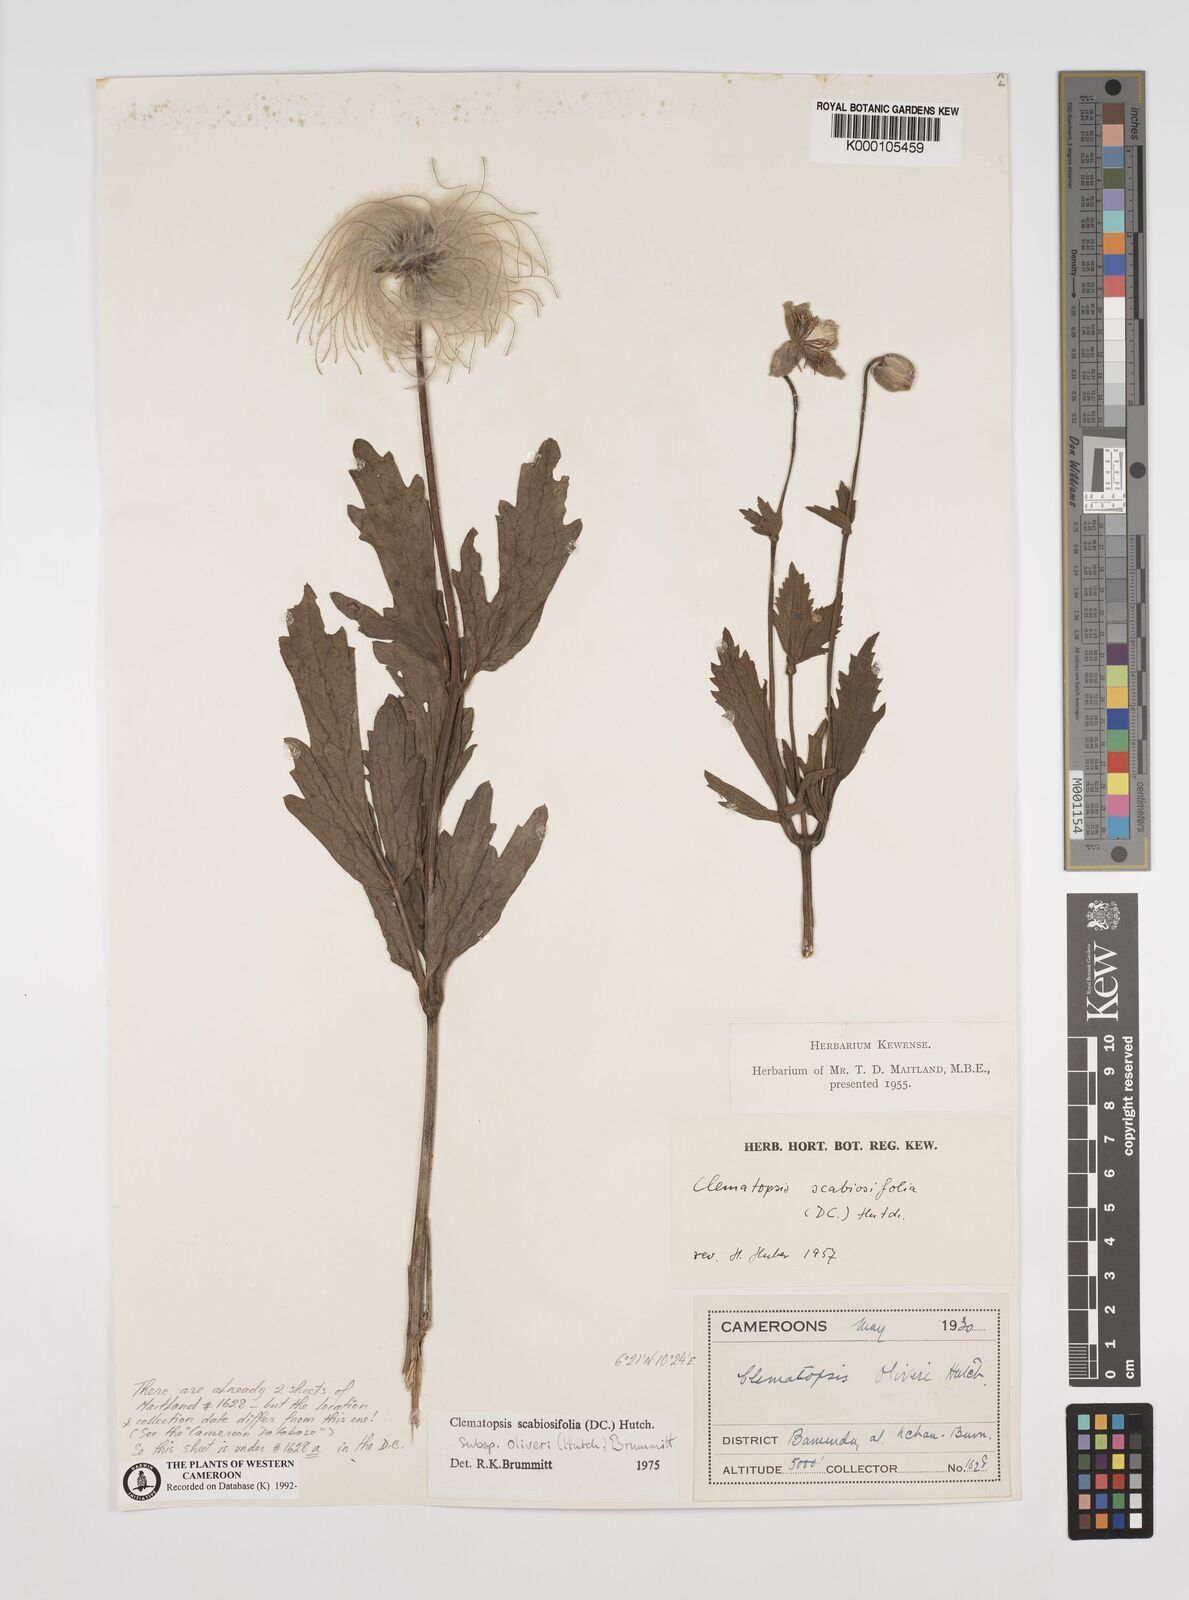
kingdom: Plantae
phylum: Tracheophyta
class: Magnoliopsida
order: Ranunculales
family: Ranunculaceae
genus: Clematis
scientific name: Clematis villosa
